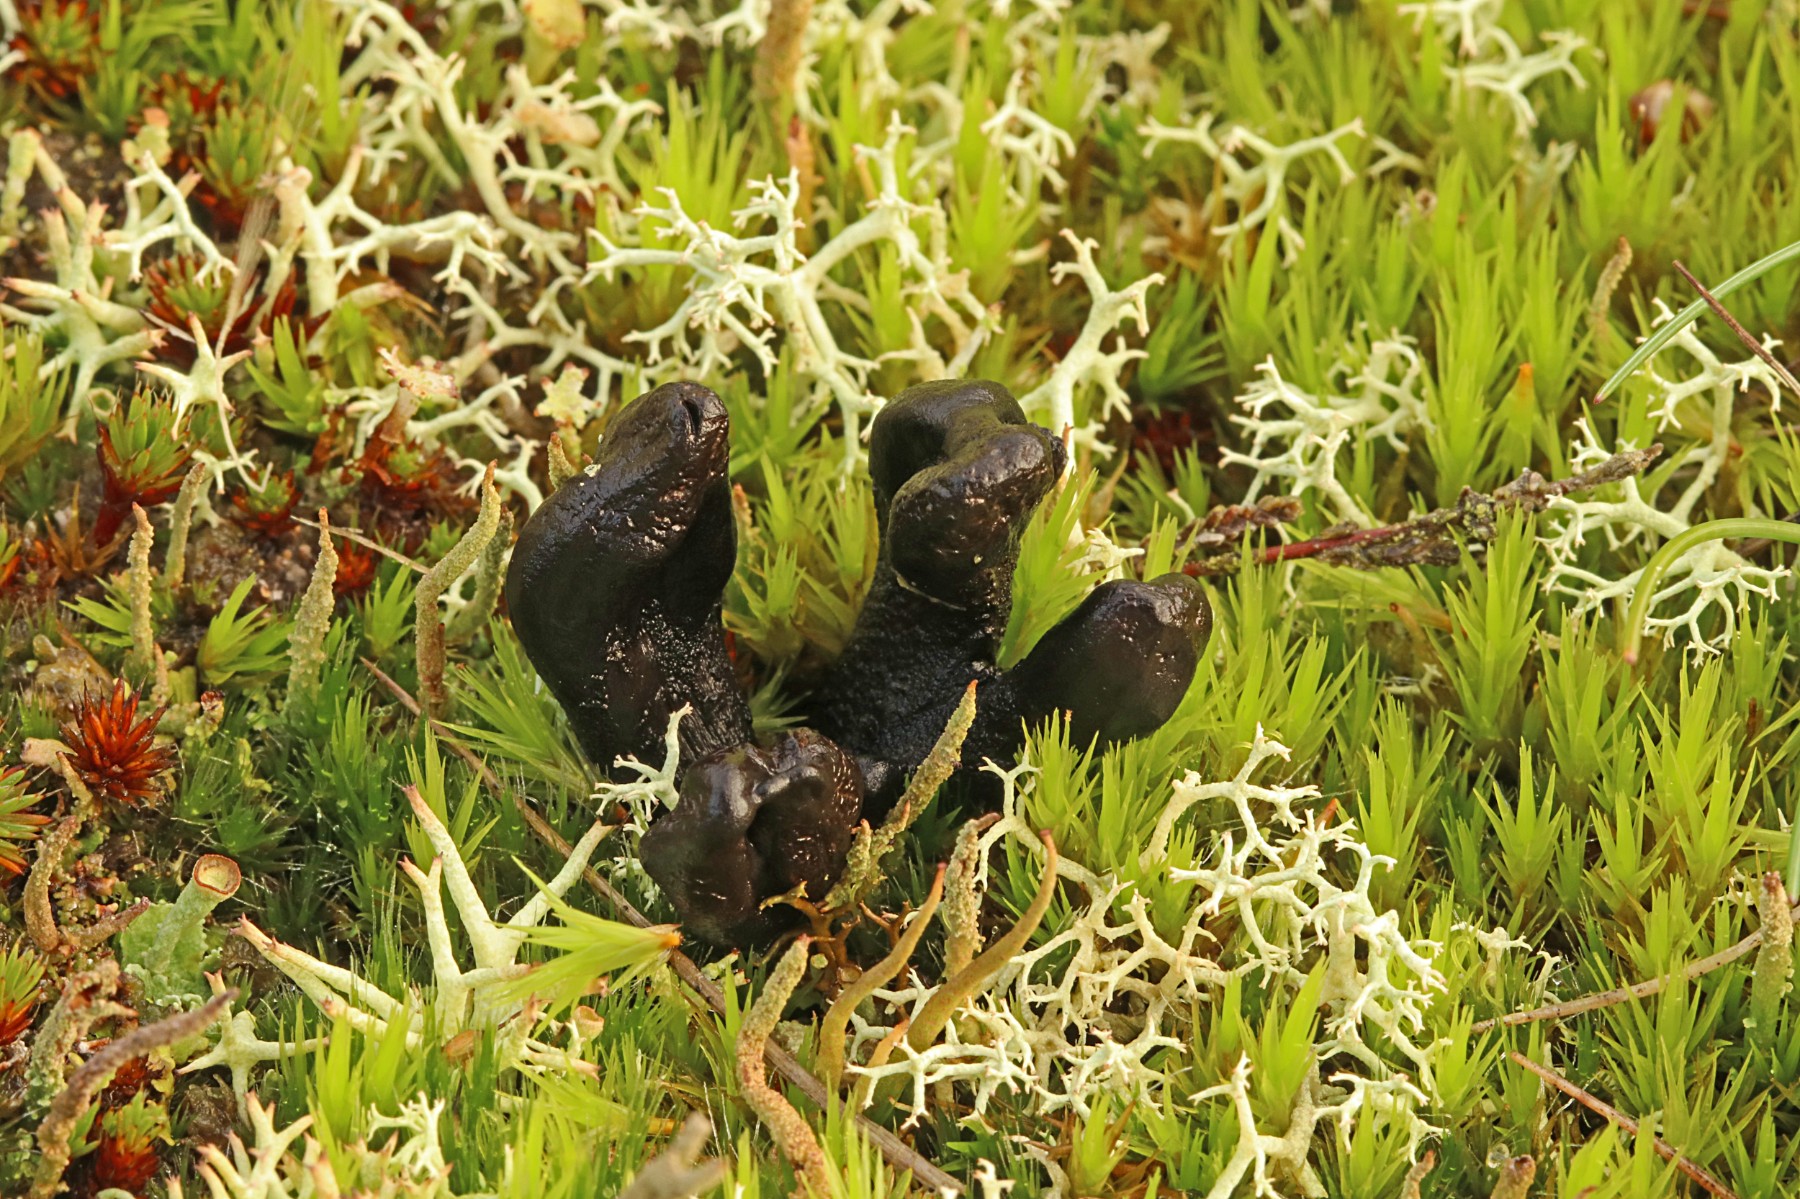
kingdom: Fungi
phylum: Ascomycota
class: Geoglossomycetes
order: Geoglossales
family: Geoglossaceae
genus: Sabuloglossum
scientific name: Sabuloglossum arenarium
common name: klit-jordtunge
